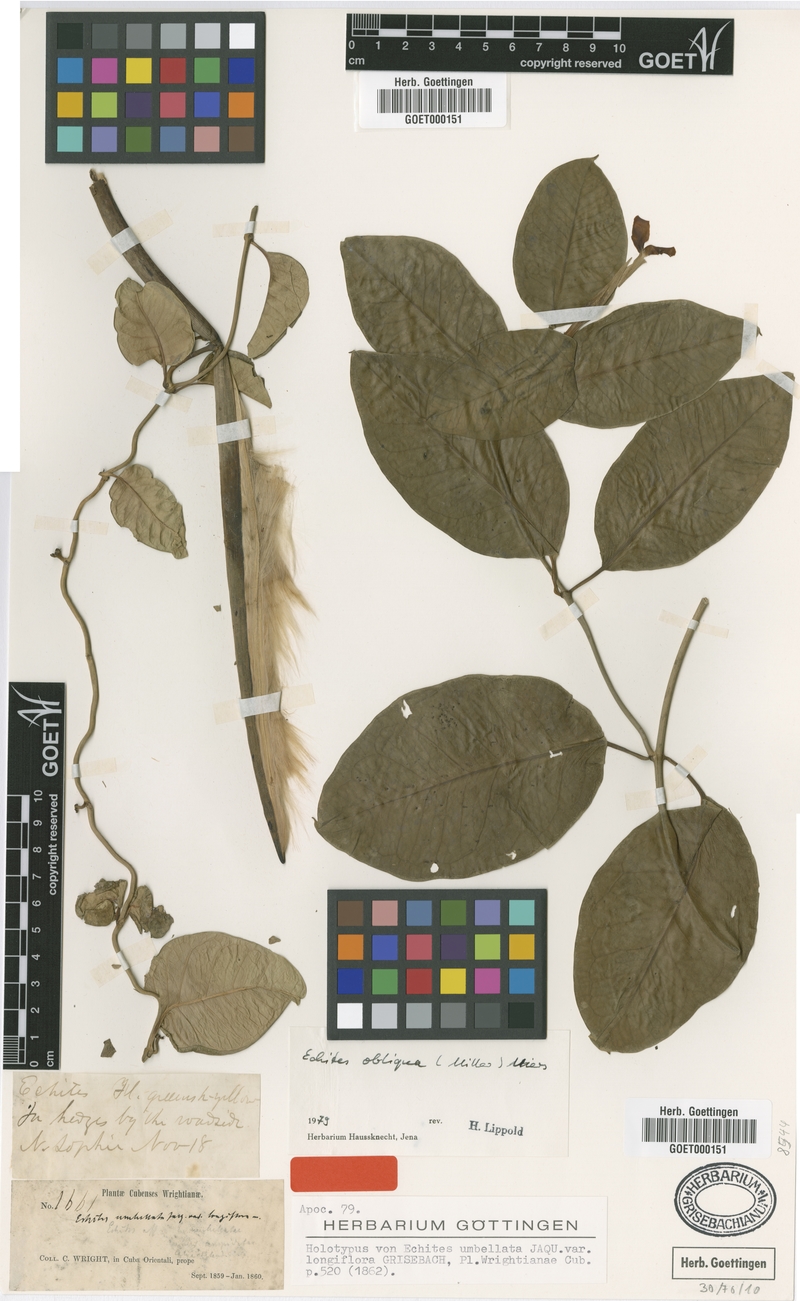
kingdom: Plantae
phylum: Tracheophyta
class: Magnoliopsida
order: Gentianales
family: Apocynaceae
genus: Echites
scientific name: Echites umbellatus
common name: Devil's potato
